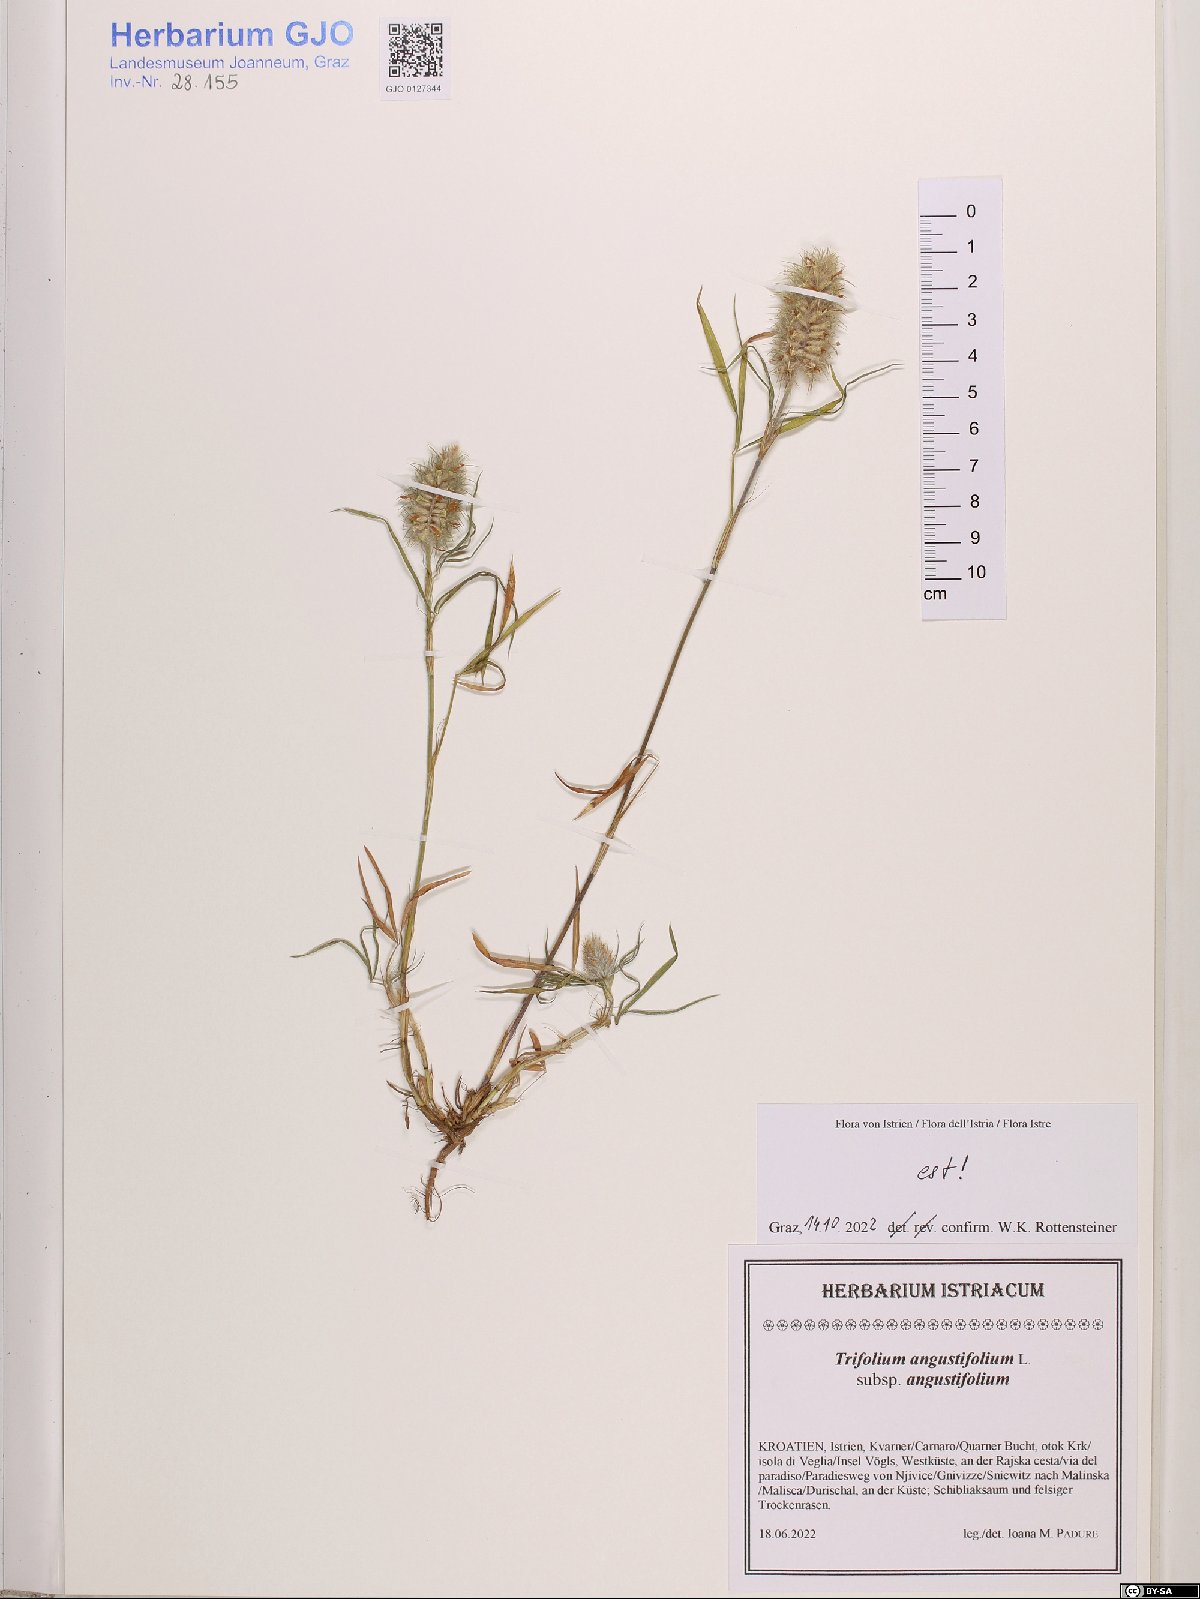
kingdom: Plantae
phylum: Tracheophyta
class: Magnoliopsida
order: Fabales
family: Fabaceae
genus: Trifolium
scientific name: Trifolium angustifolium
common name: Narrow clover
